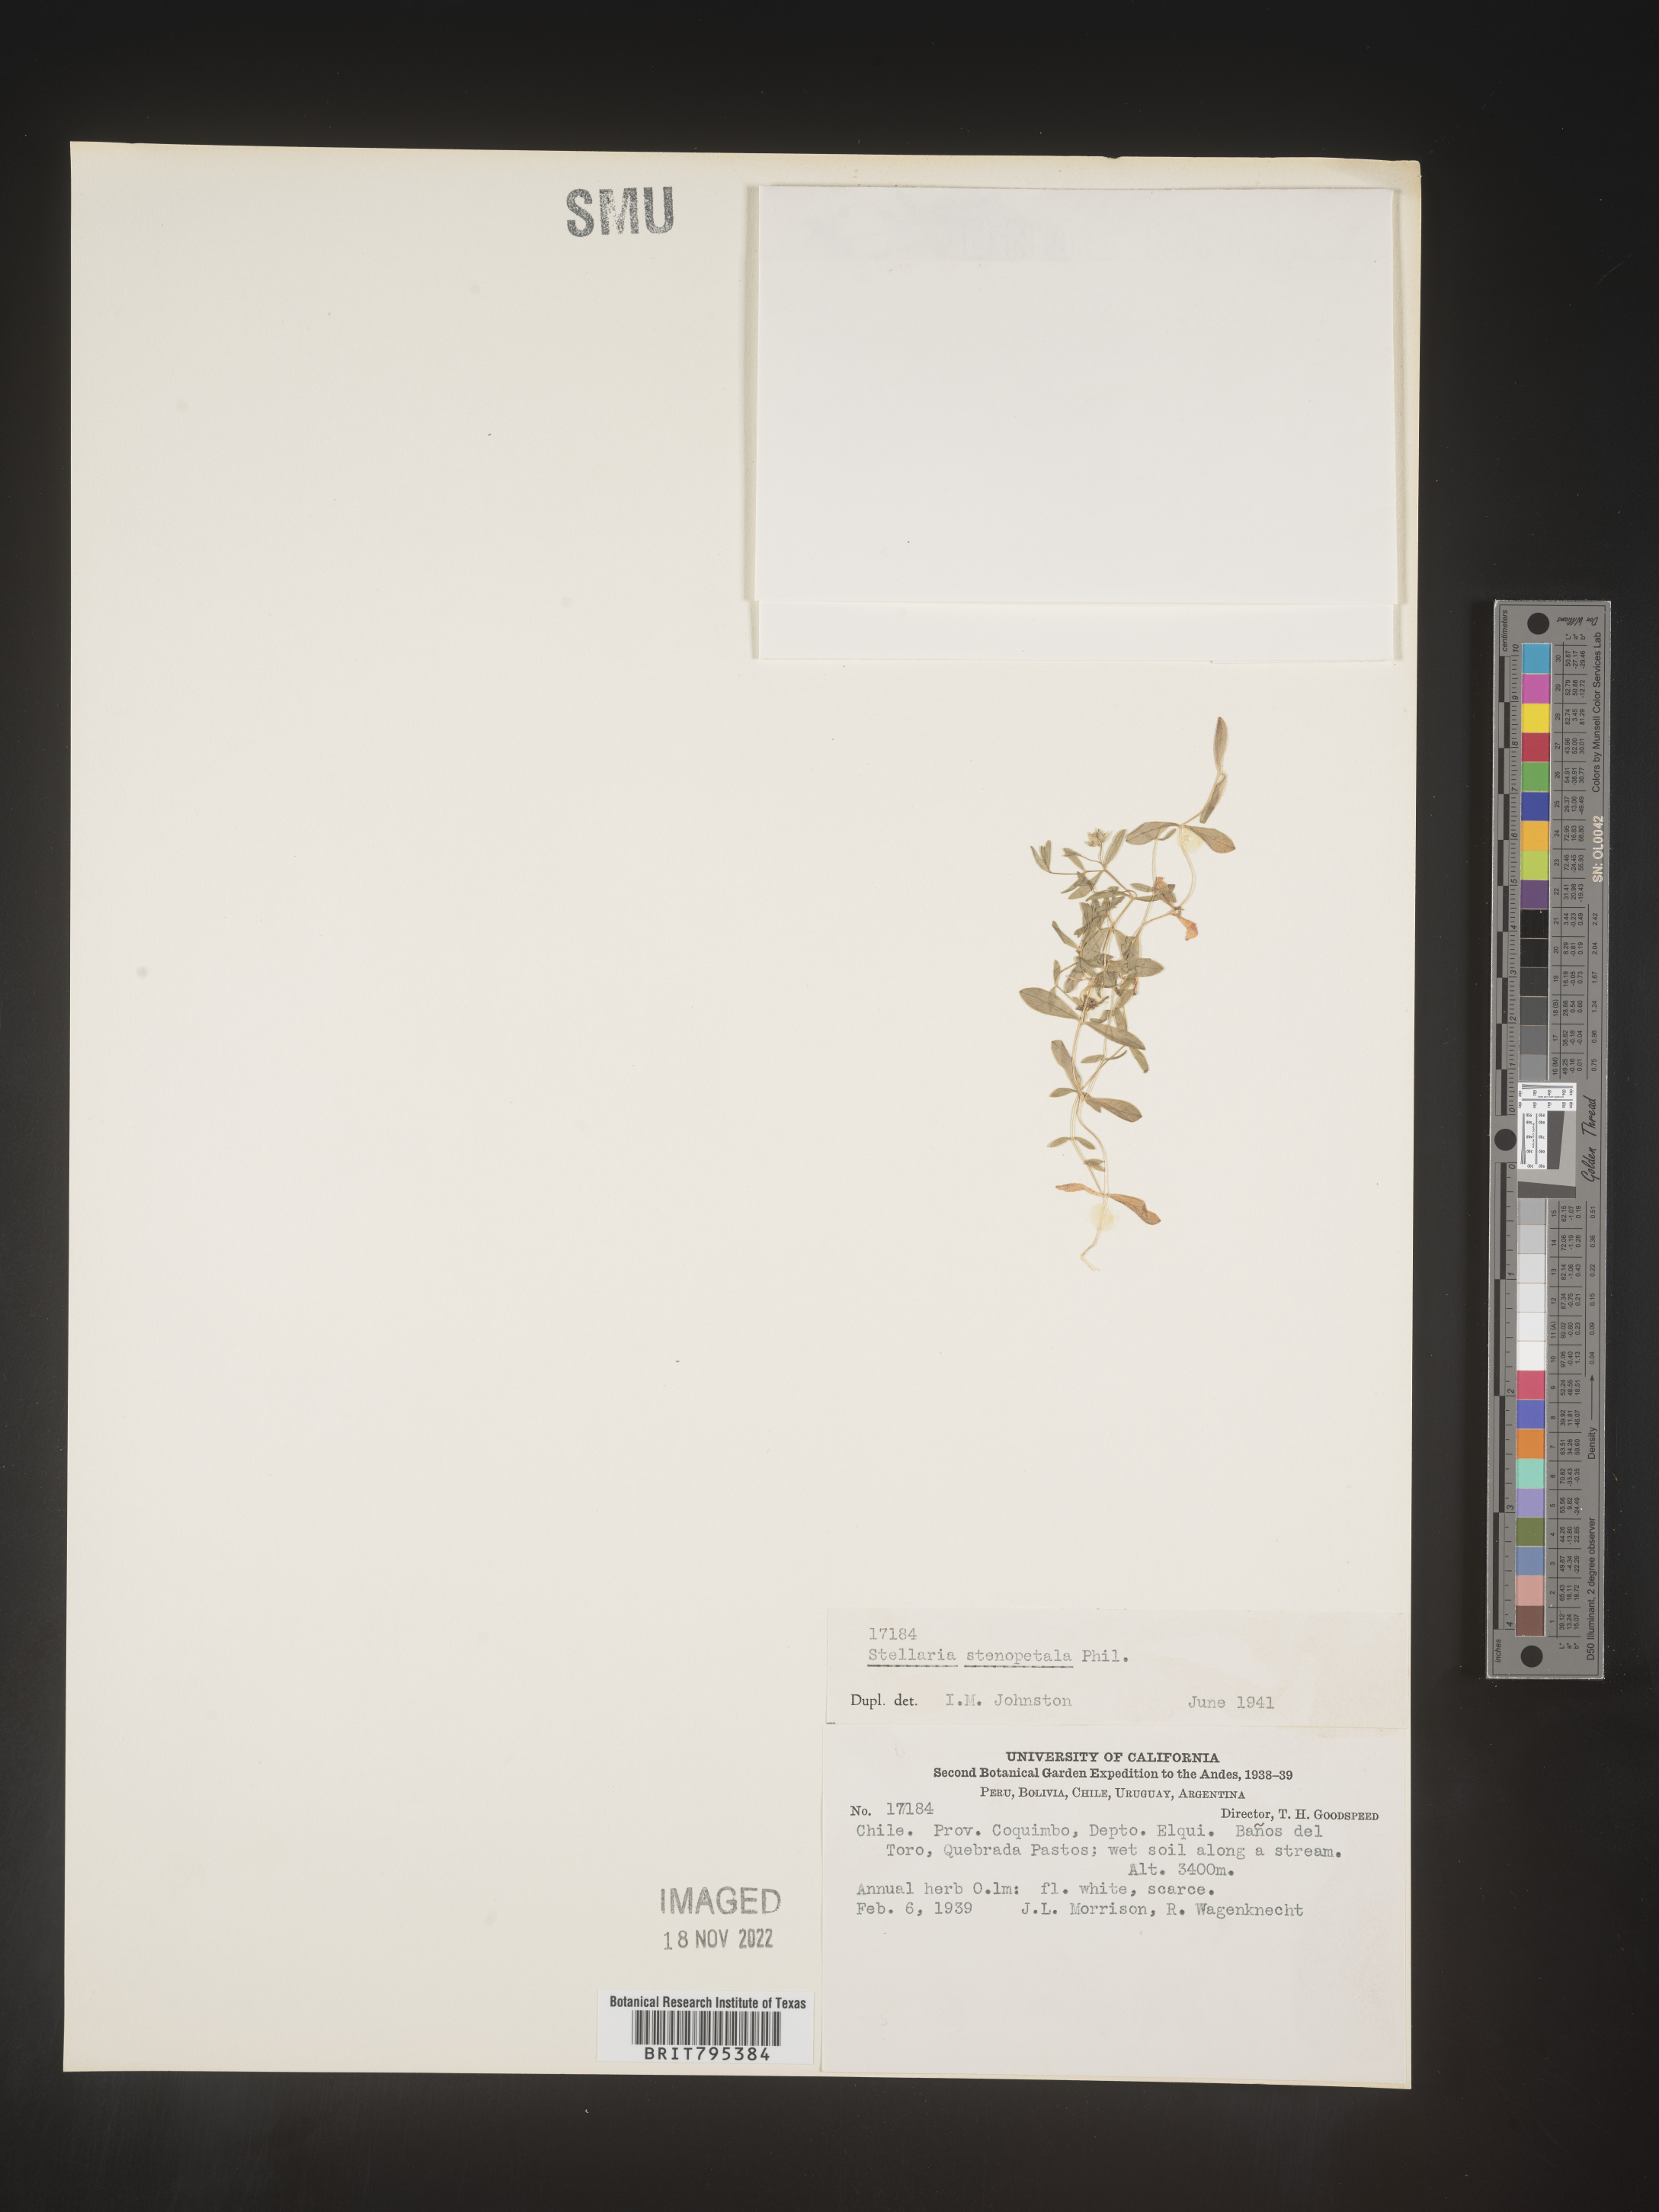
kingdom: Plantae
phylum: Tracheophyta
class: Magnoliopsida
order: Caryophyllales
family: Caryophyllaceae
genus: Stellaria
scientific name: Stellaria
